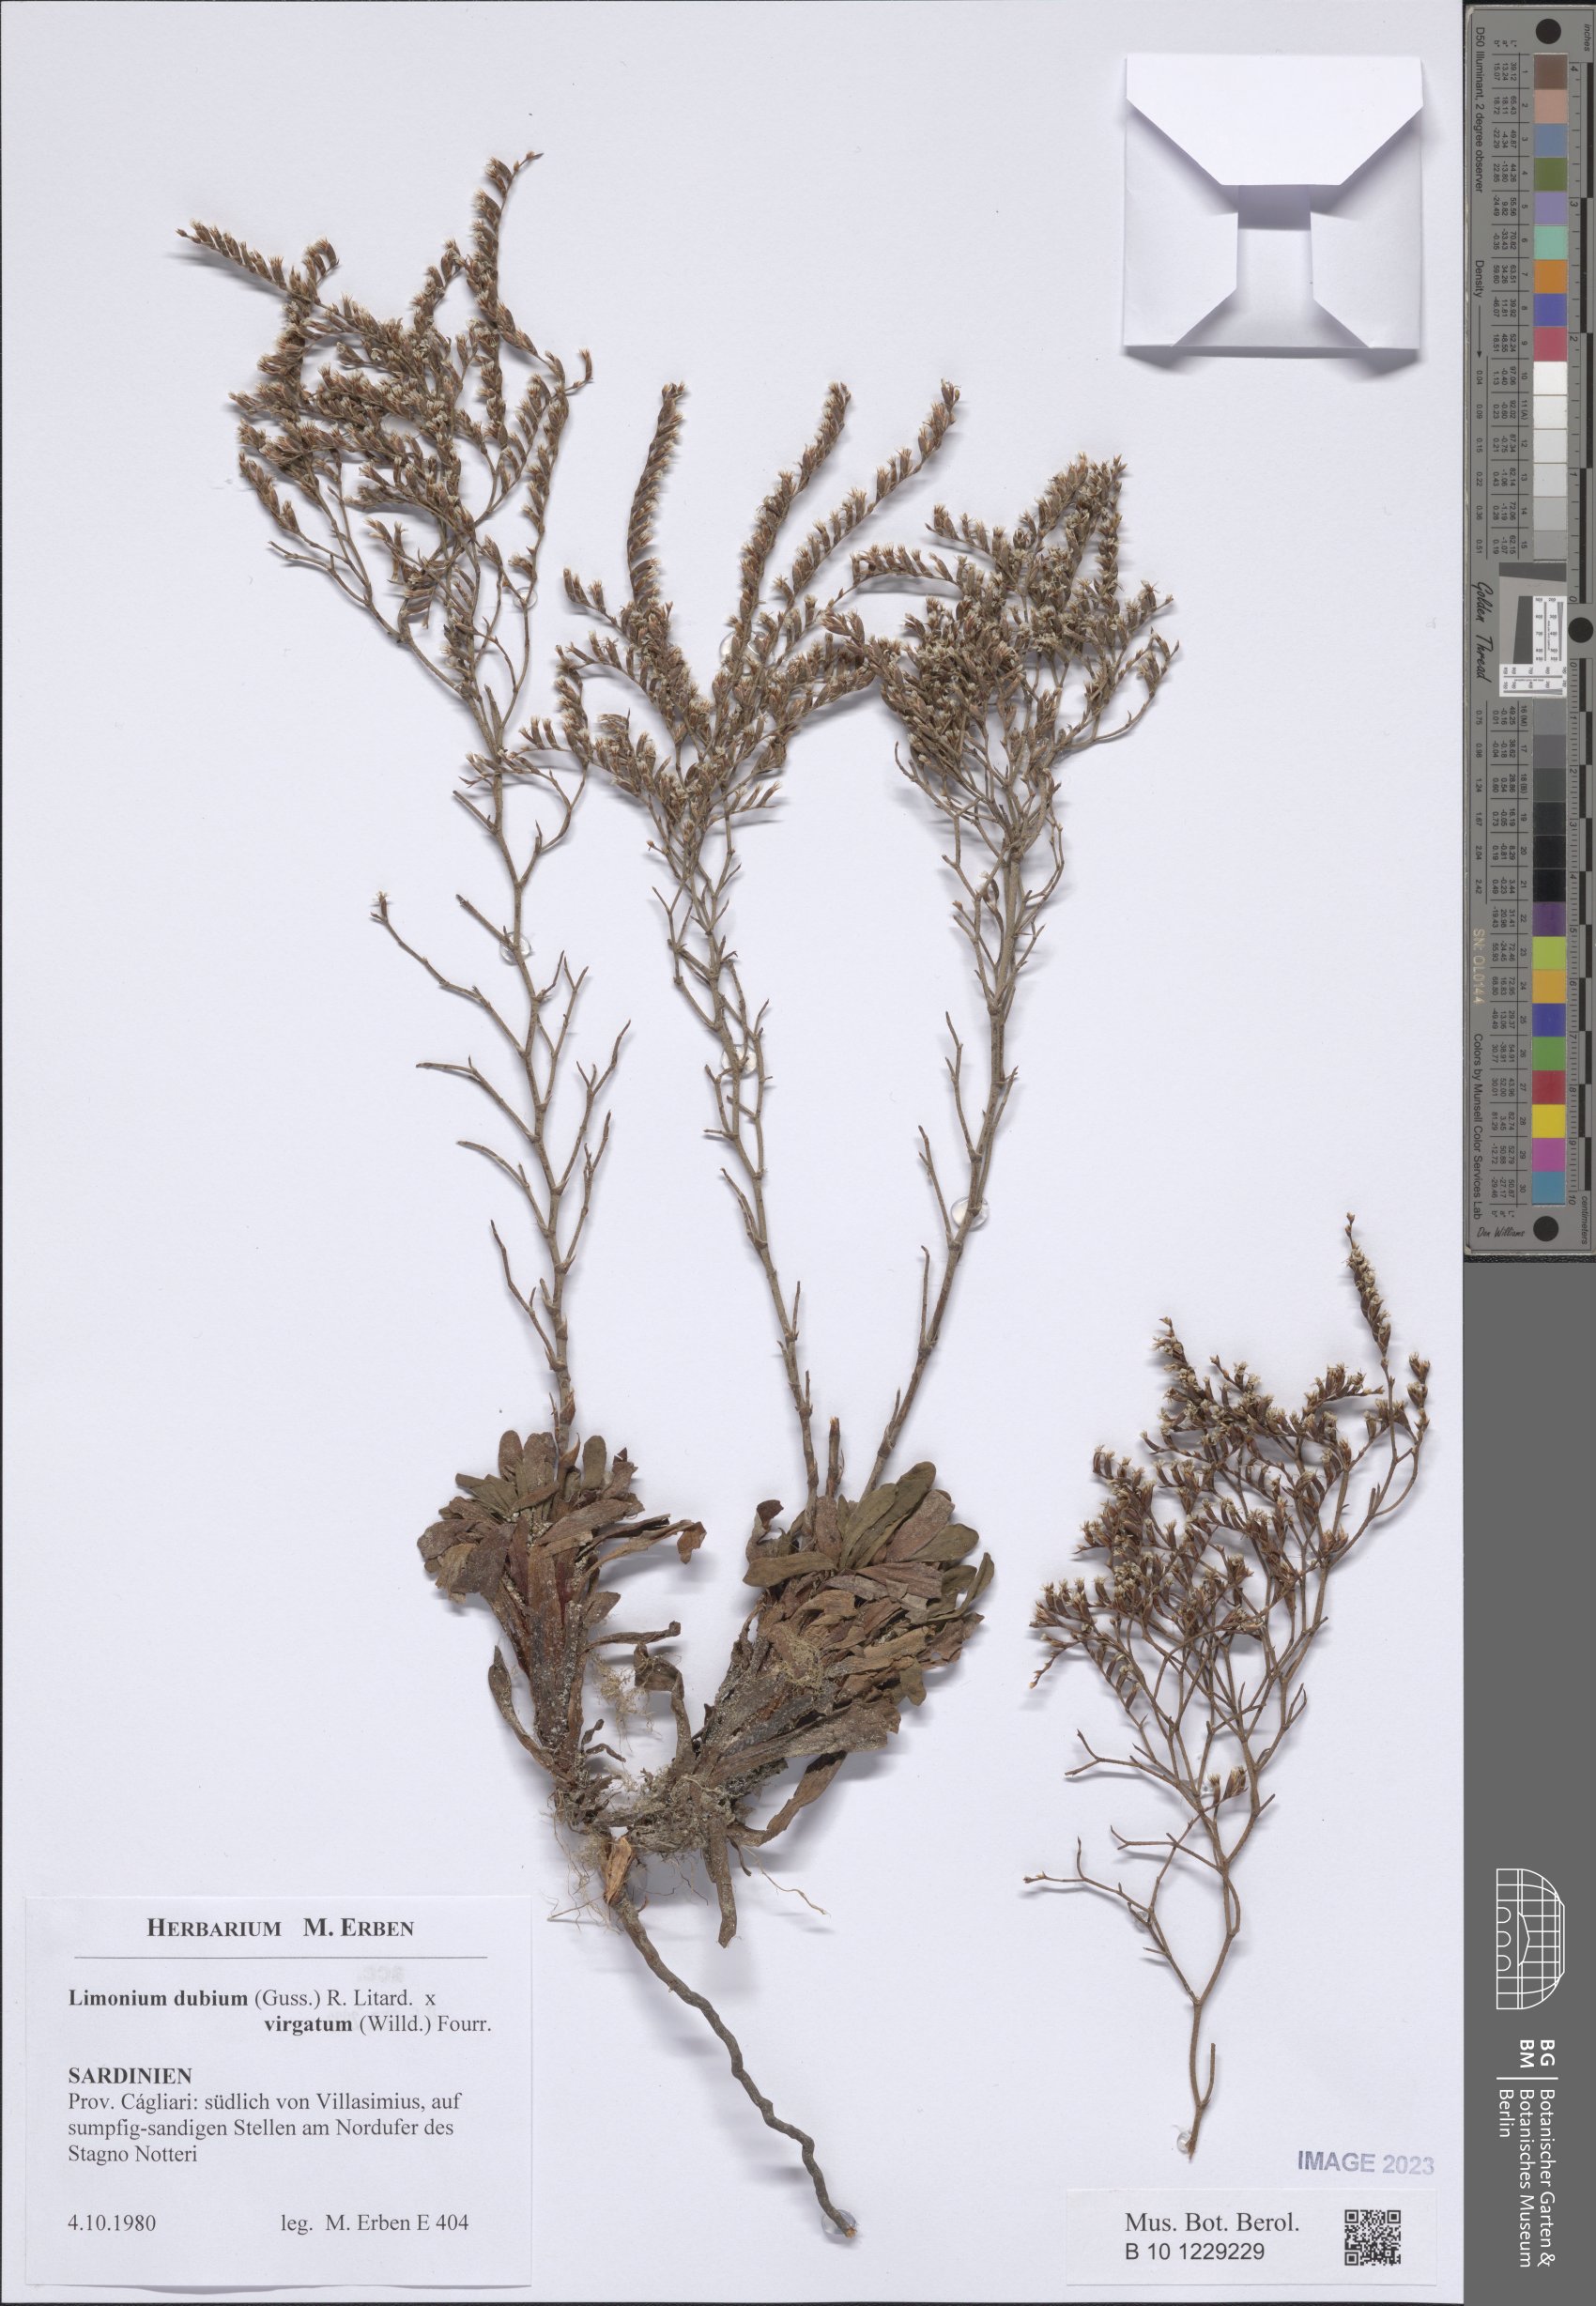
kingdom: Plantae
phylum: Tracheophyta
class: Magnoliopsida
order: Caryophyllales
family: Plumbaginaceae
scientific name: Plumbaginaceae
